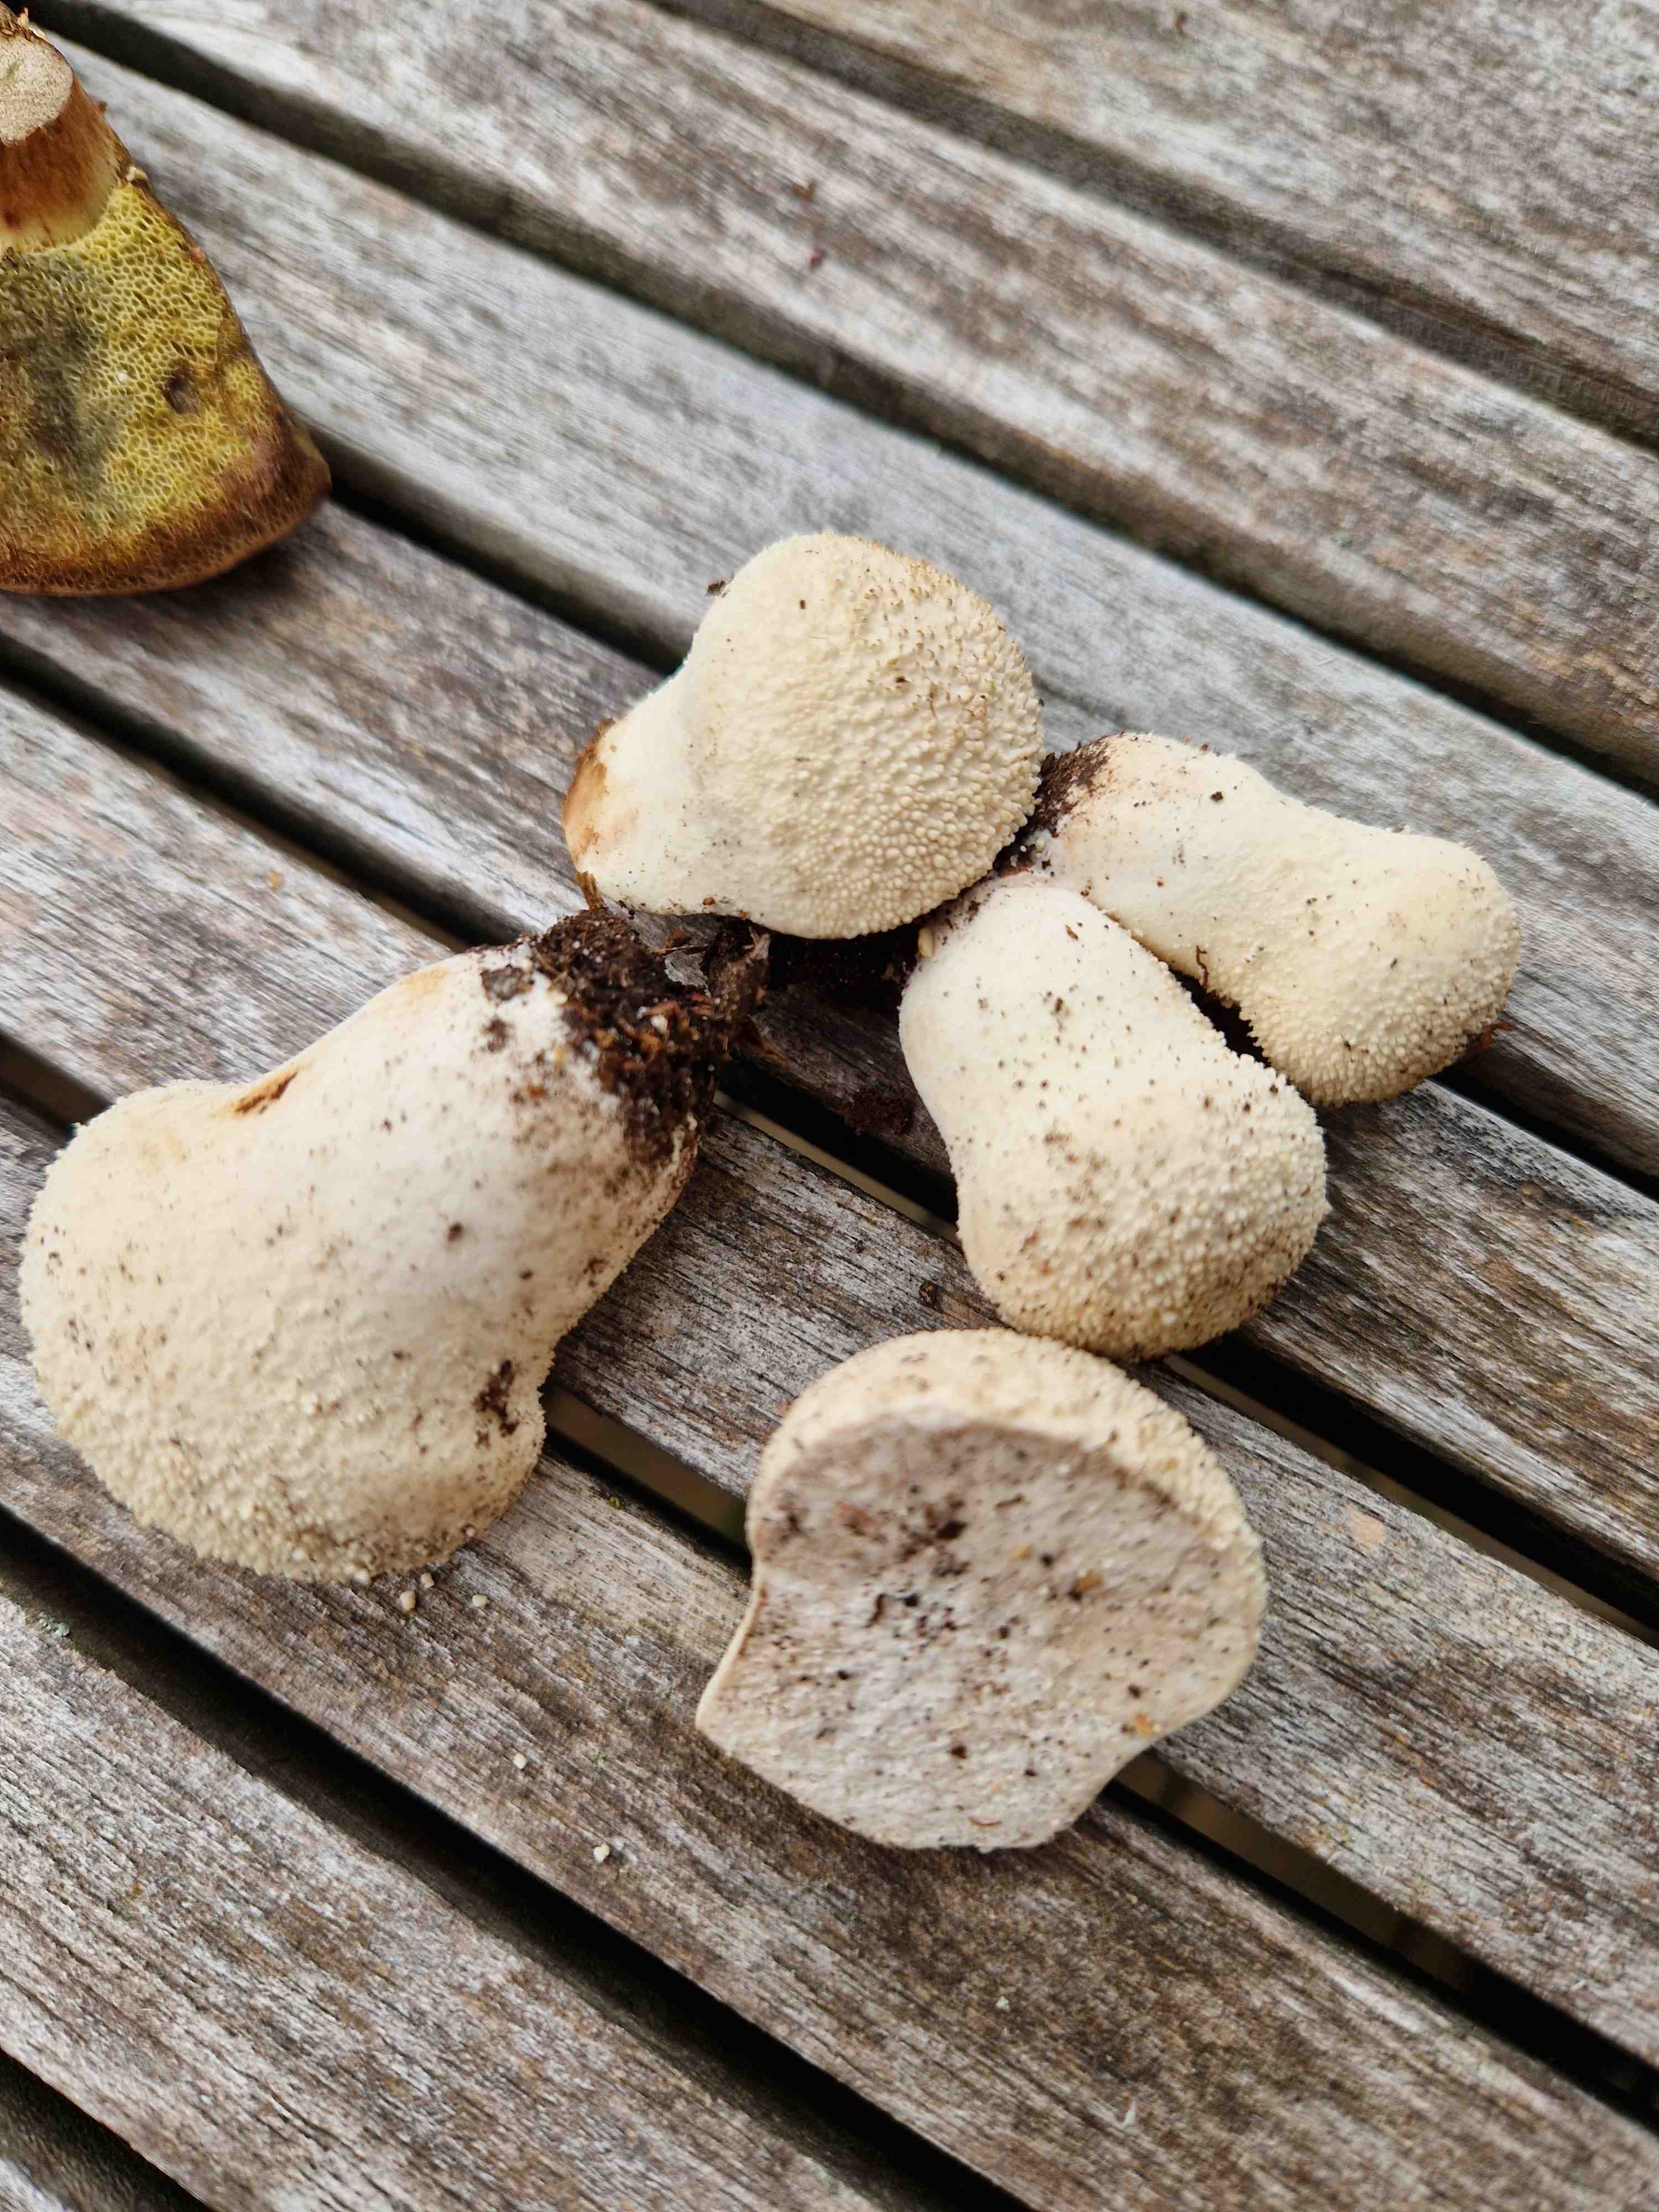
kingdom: Fungi
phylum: Basidiomycota
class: Agaricomycetes
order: Agaricales
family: Lycoperdaceae
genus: Lycoperdon
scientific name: Lycoperdon perlatum
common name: krystal-støvbold
